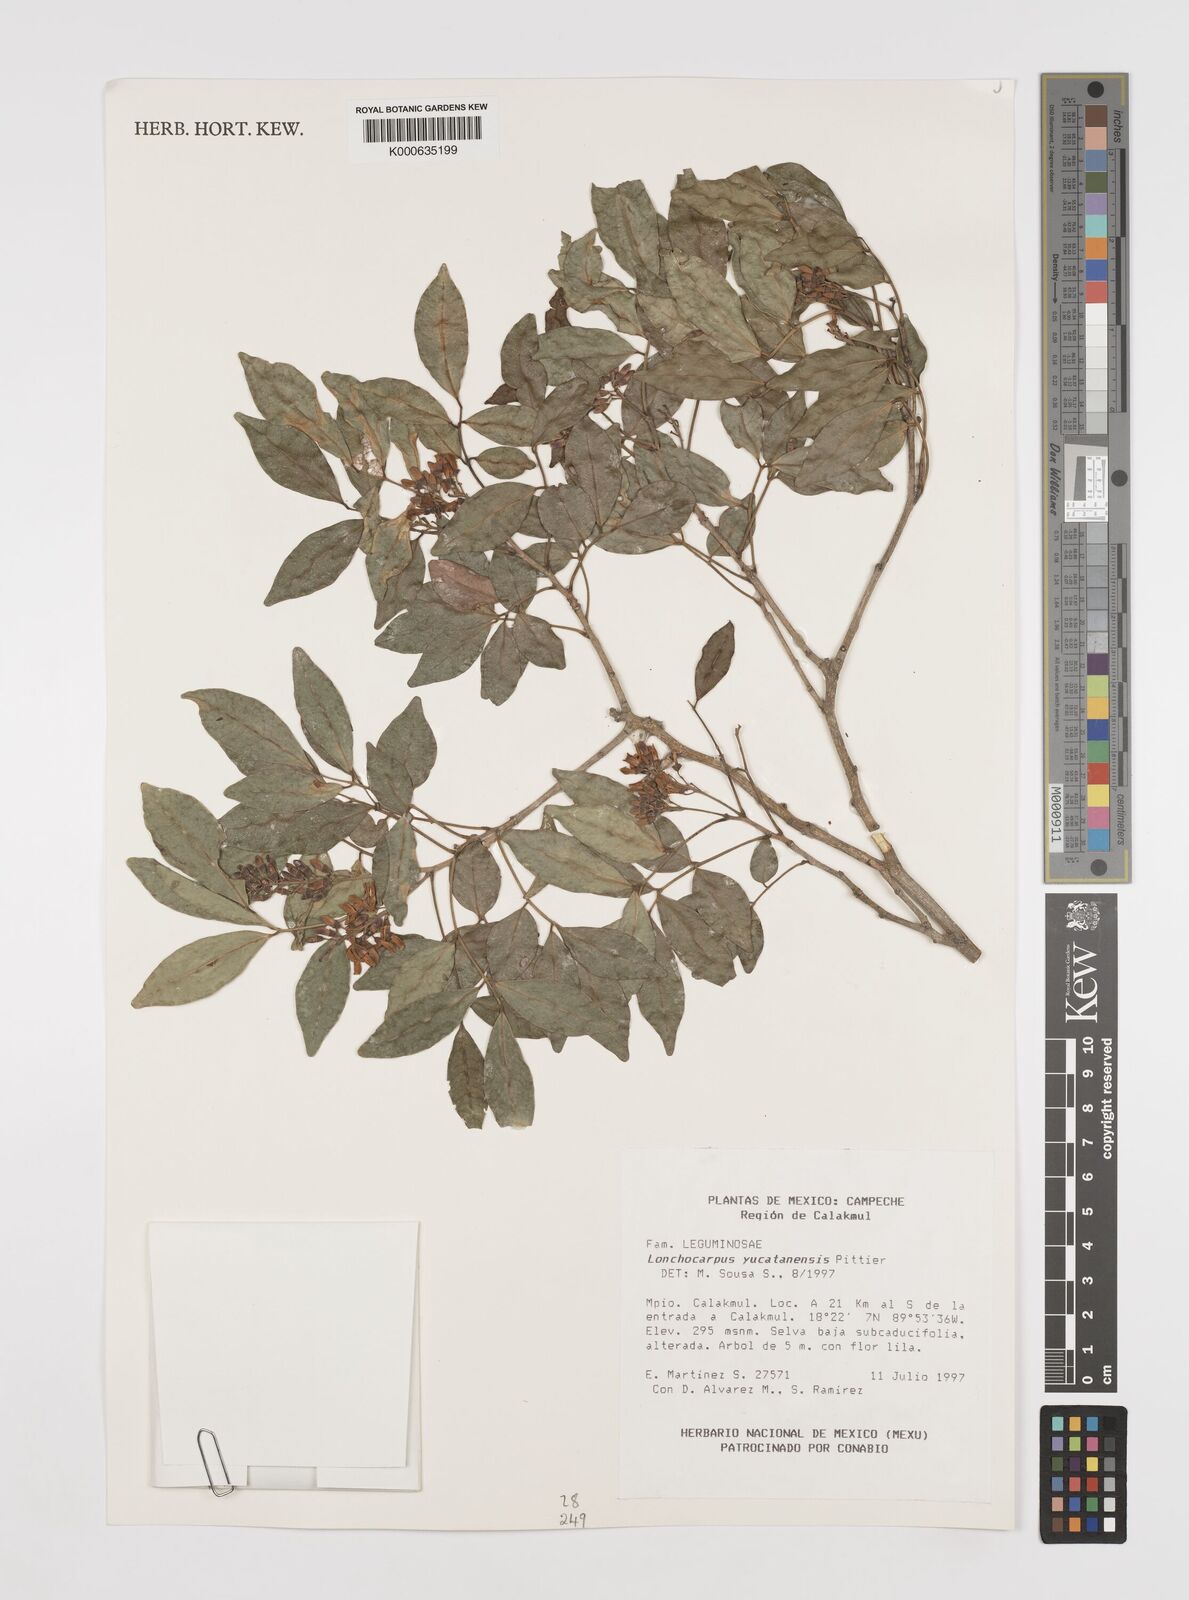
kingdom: Plantae
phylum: Tracheophyta
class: Magnoliopsida
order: Fabales
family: Fabaceae
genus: Lonchocarpus
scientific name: Lonchocarpus yucatanensis
